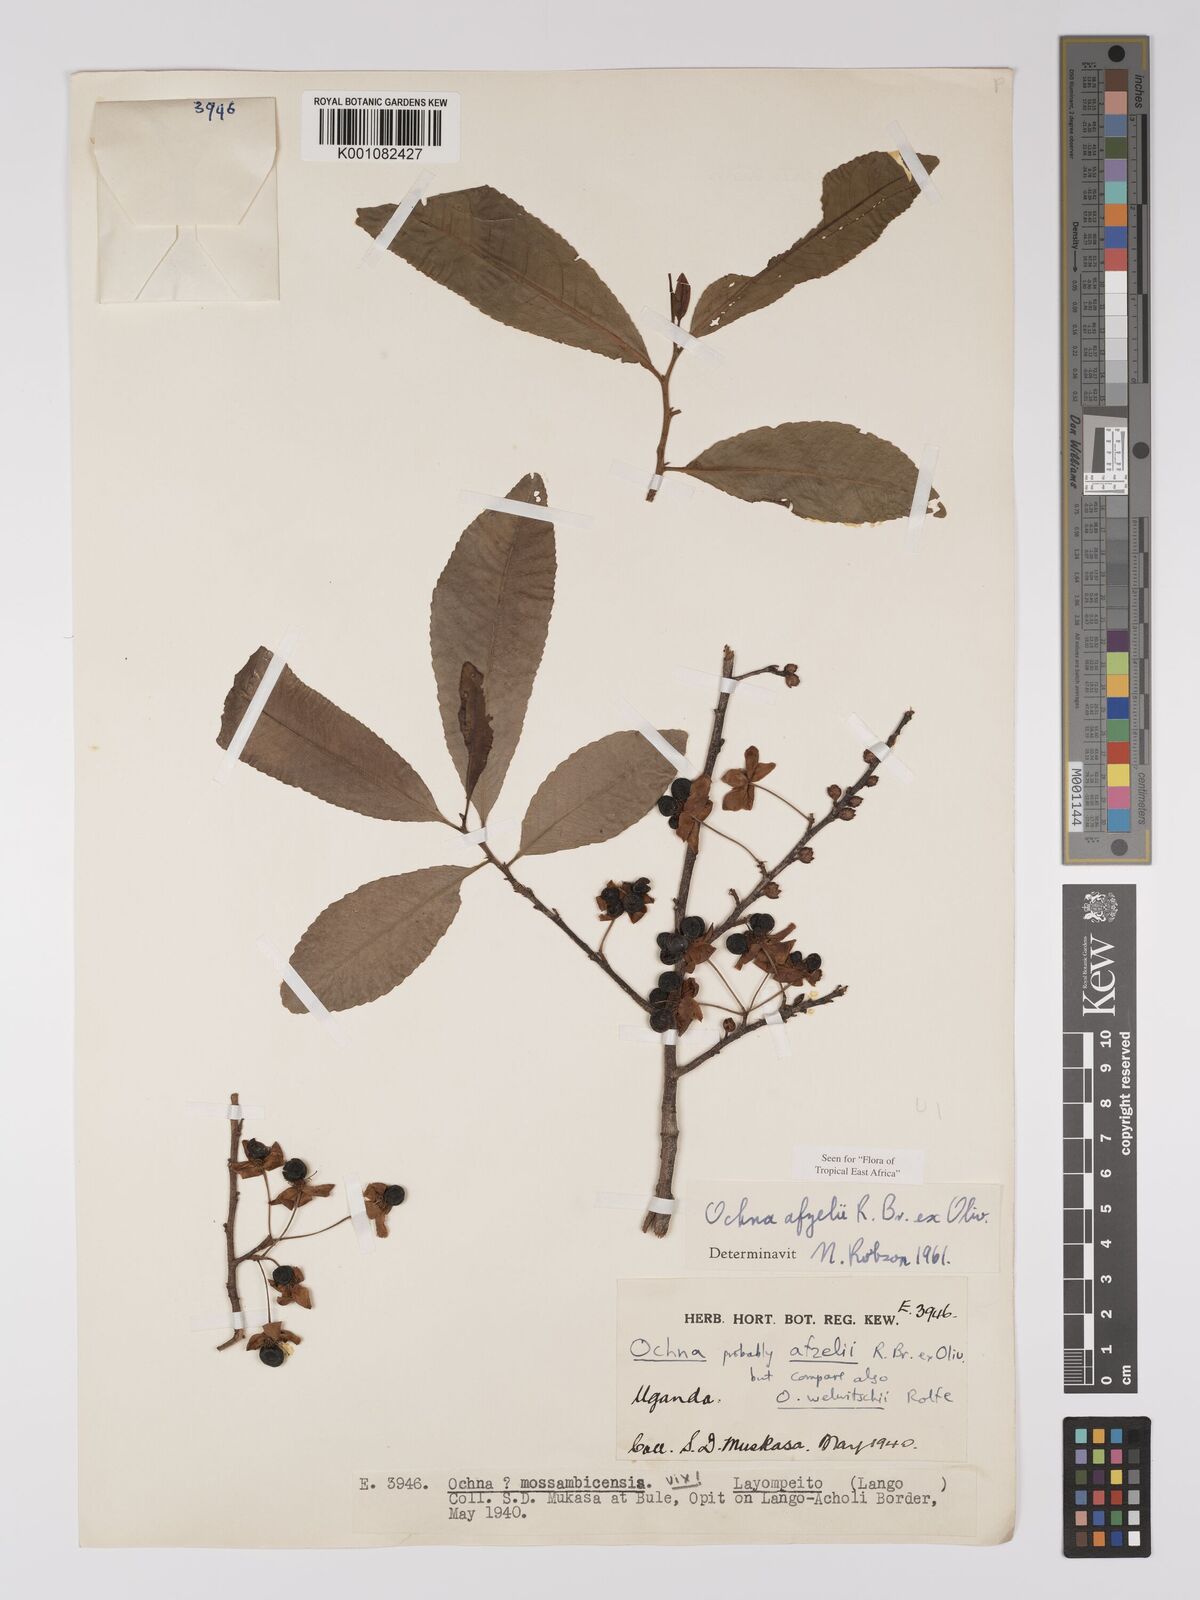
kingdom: Plantae
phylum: Tracheophyta
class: Magnoliopsida
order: Malpighiales
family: Ochnaceae
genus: Ochna
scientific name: Ochna afzelii
